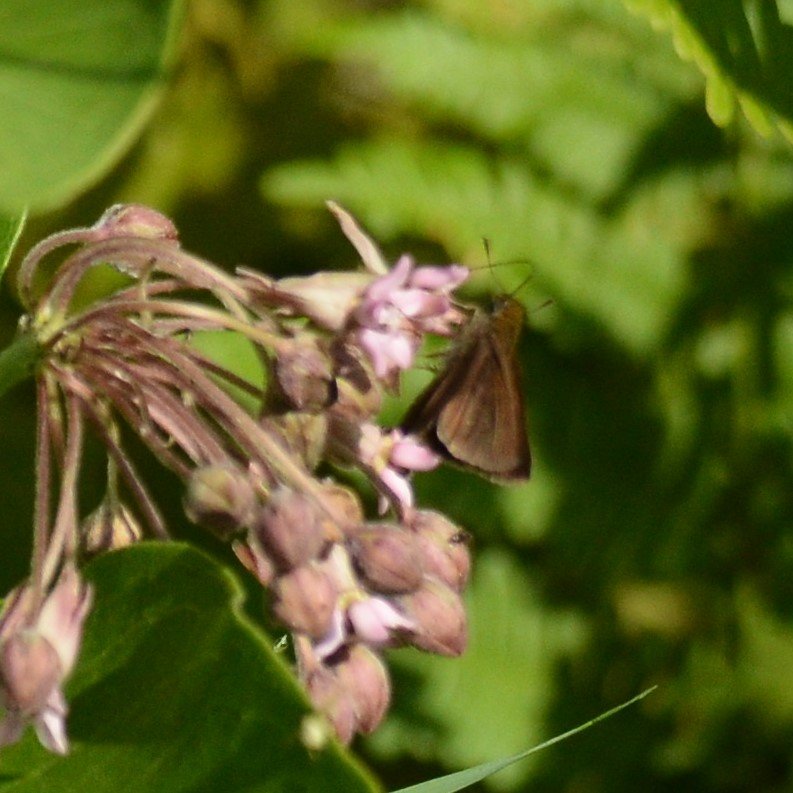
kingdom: Animalia
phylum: Arthropoda
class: Insecta
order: Lepidoptera
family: Hesperiidae
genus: Euphyes
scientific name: Euphyes vestris
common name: Dun Skipper
